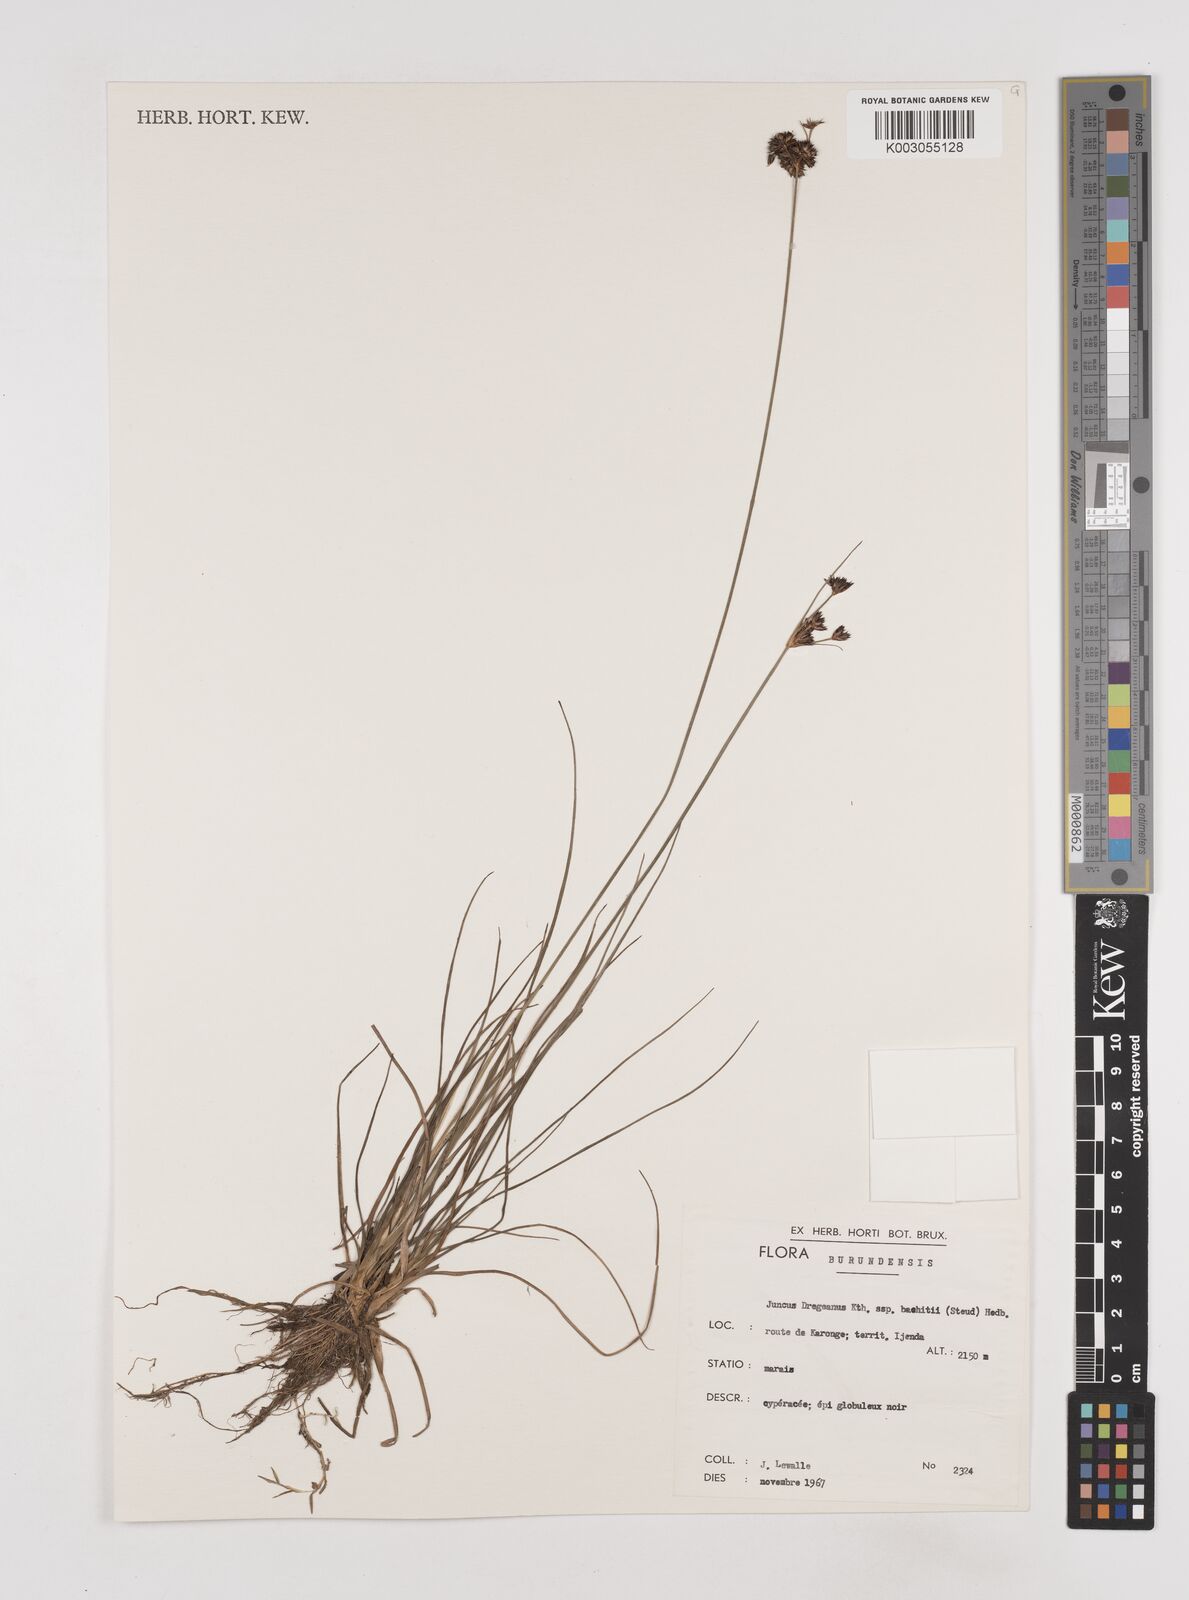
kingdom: Plantae
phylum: Tracheophyta
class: Liliopsida
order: Poales
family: Juncaceae
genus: Juncus
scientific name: Juncus dregeanus
